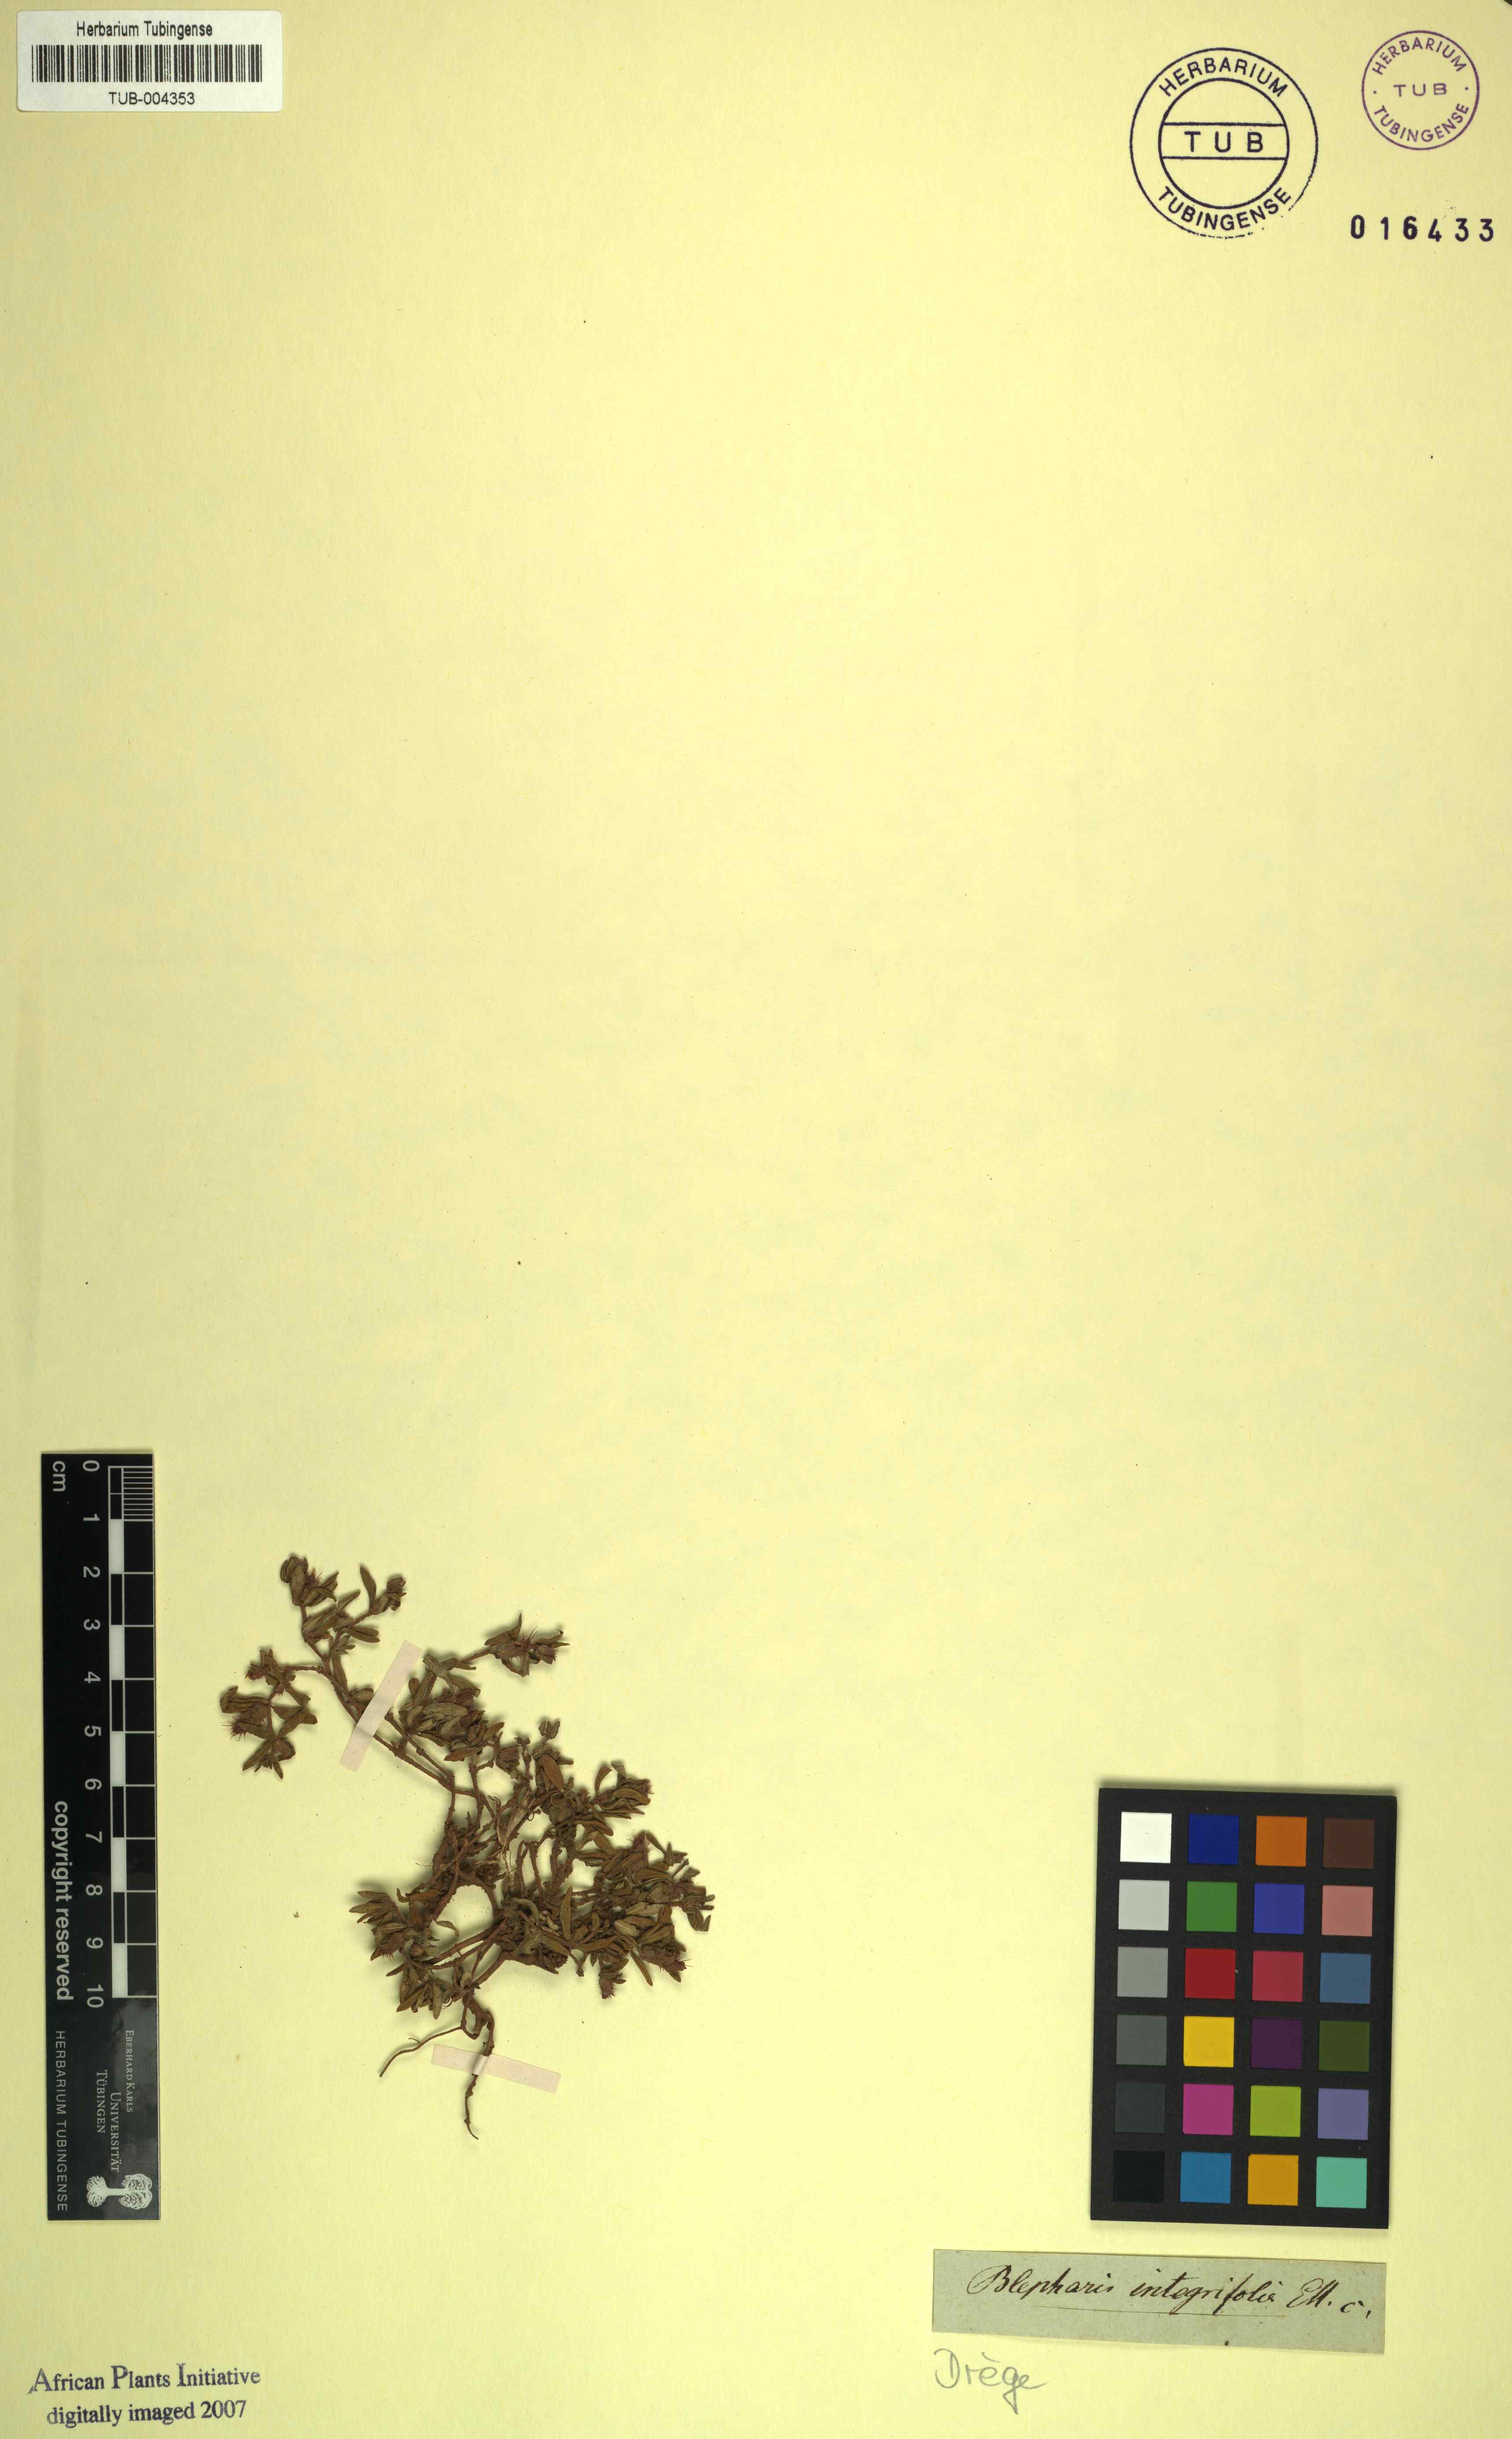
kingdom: Plantae
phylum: Tracheophyta
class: Magnoliopsida
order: Lamiales
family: Acanthaceae
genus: Blepharis
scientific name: Blepharis integrifolia
